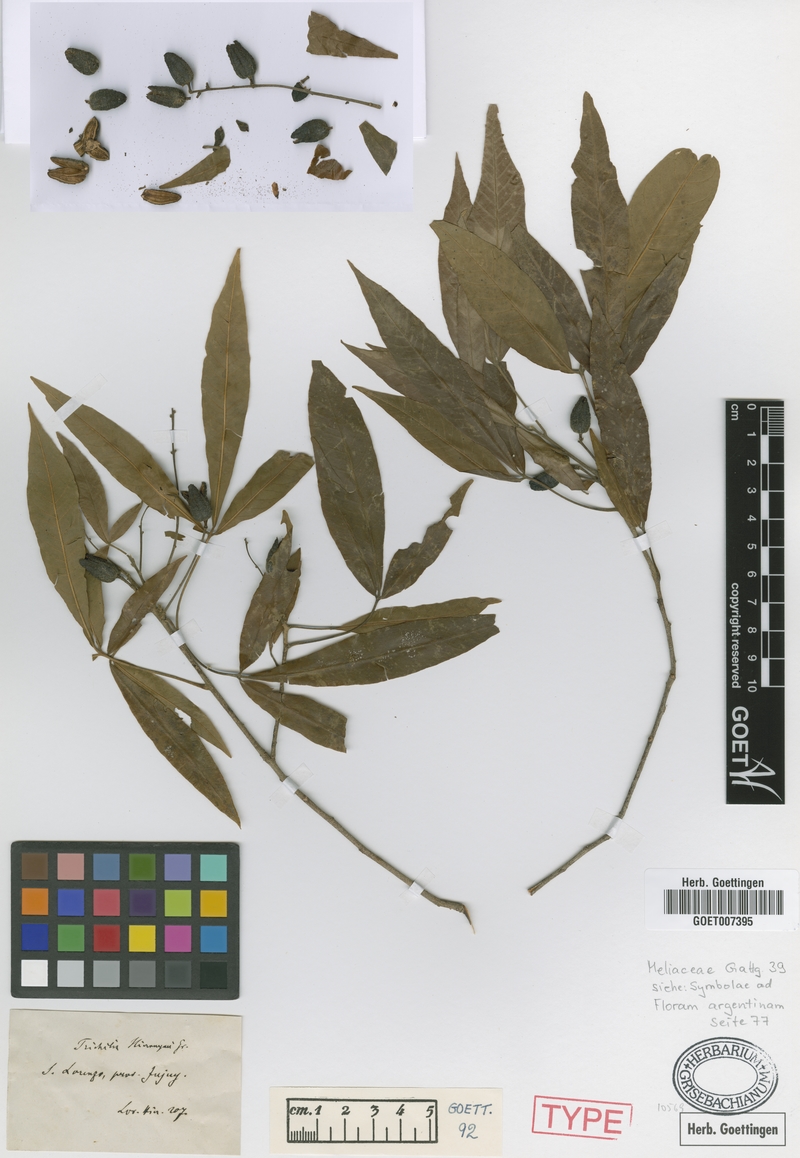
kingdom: Plantae
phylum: Tracheophyta
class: Magnoliopsida
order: Sapindales
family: Meliaceae
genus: Trichilia
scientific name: Trichilia claussenii
